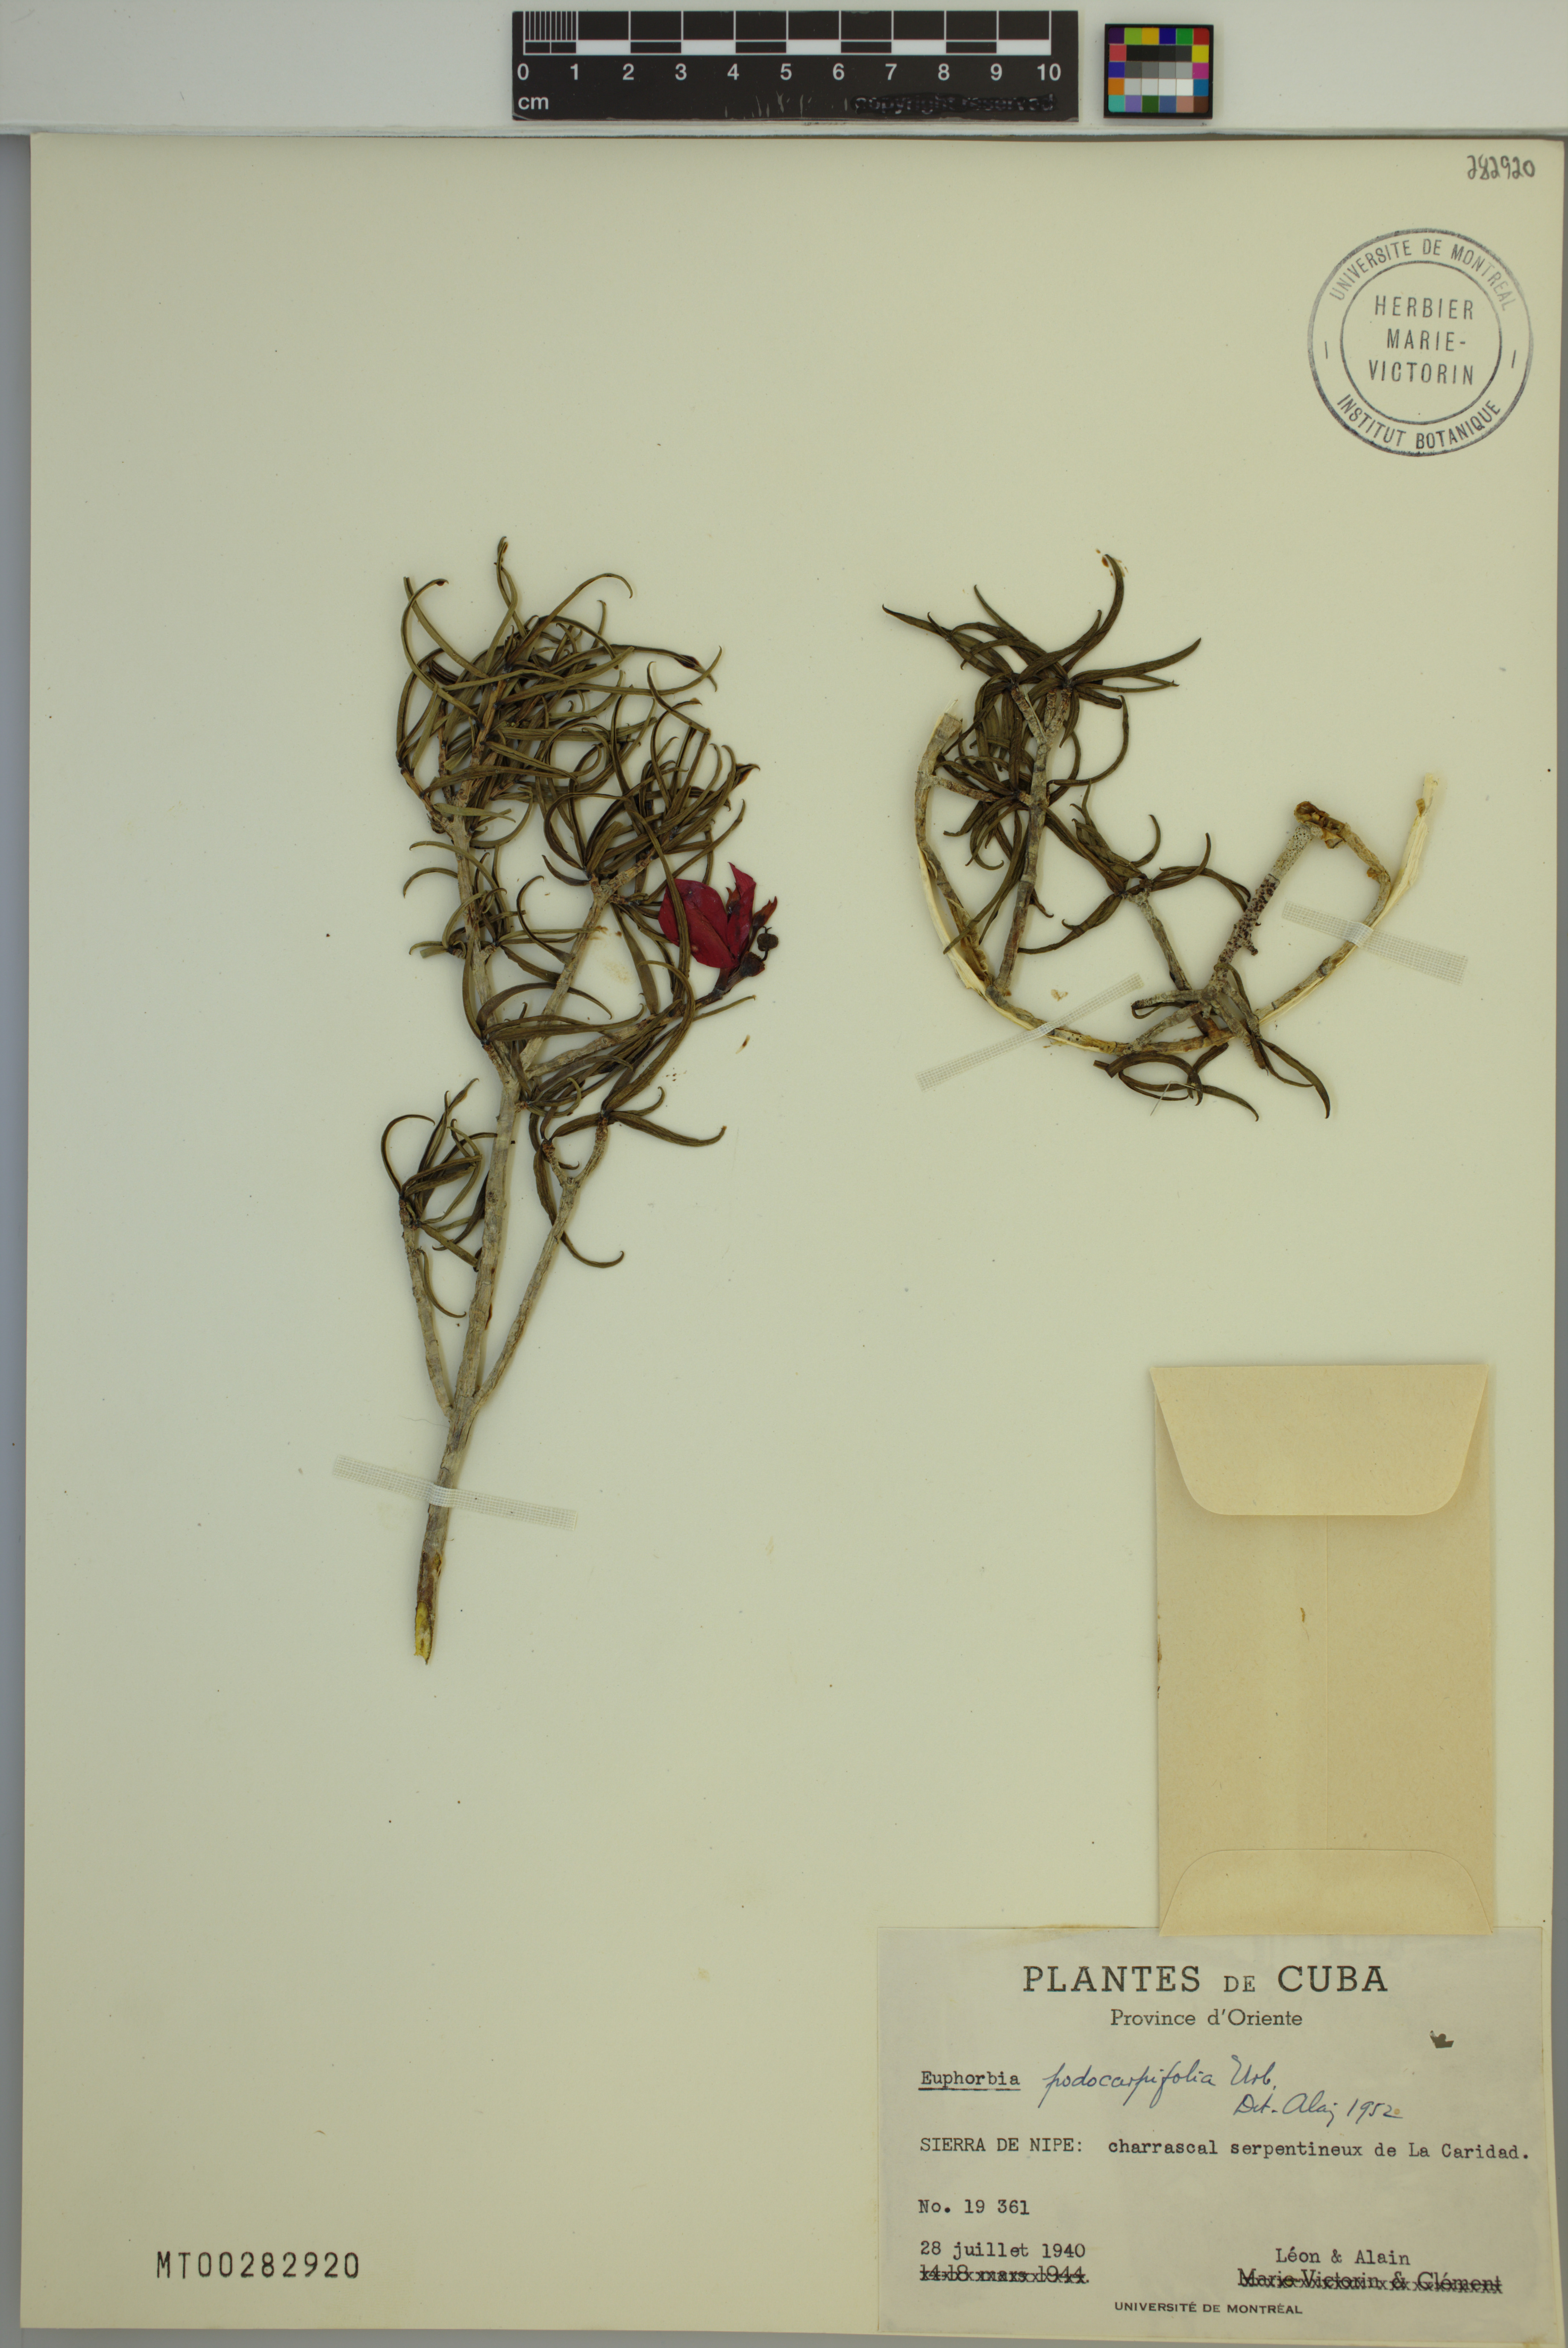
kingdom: Plantae
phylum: Tracheophyta
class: Magnoliopsida
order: Malpighiales
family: Euphorbiaceae
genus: Euphorbia
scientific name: Euphorbia podocarpifolia
